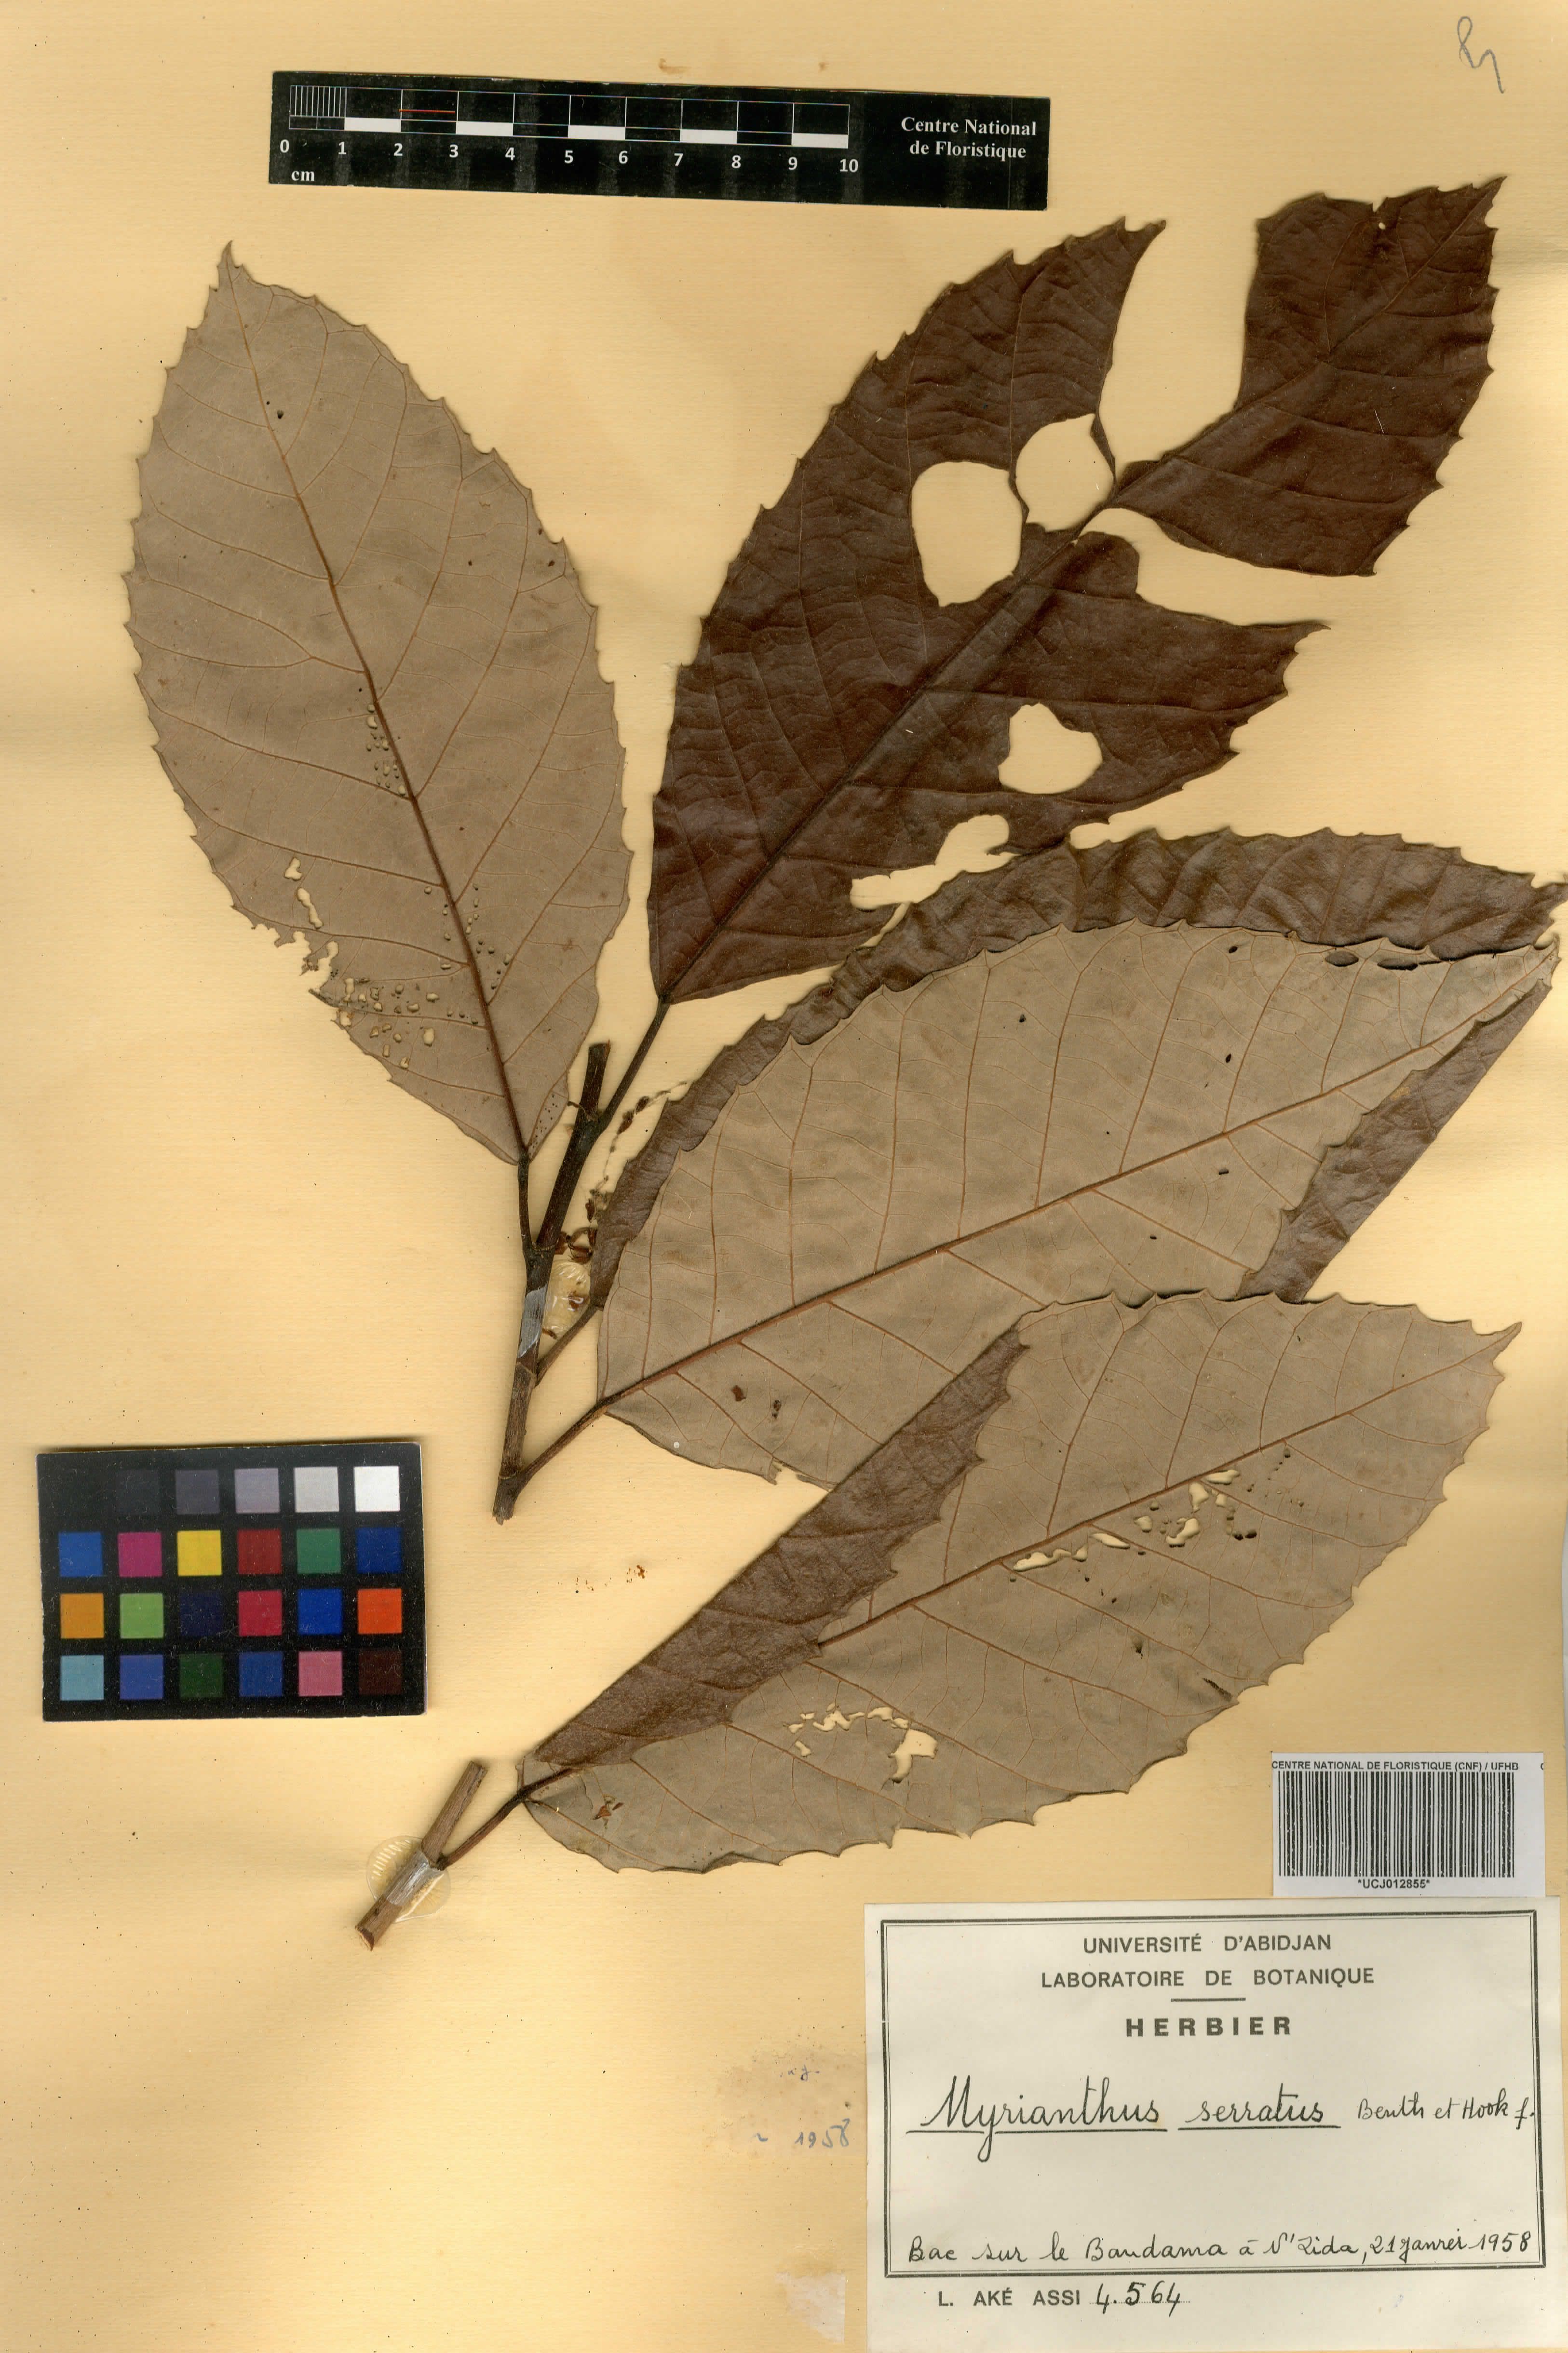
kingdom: Plantae
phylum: Tracheophyta
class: Magnoliopsida
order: Rosales
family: Urticaceae
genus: Myrianthus
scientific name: Myrianthus serratus
